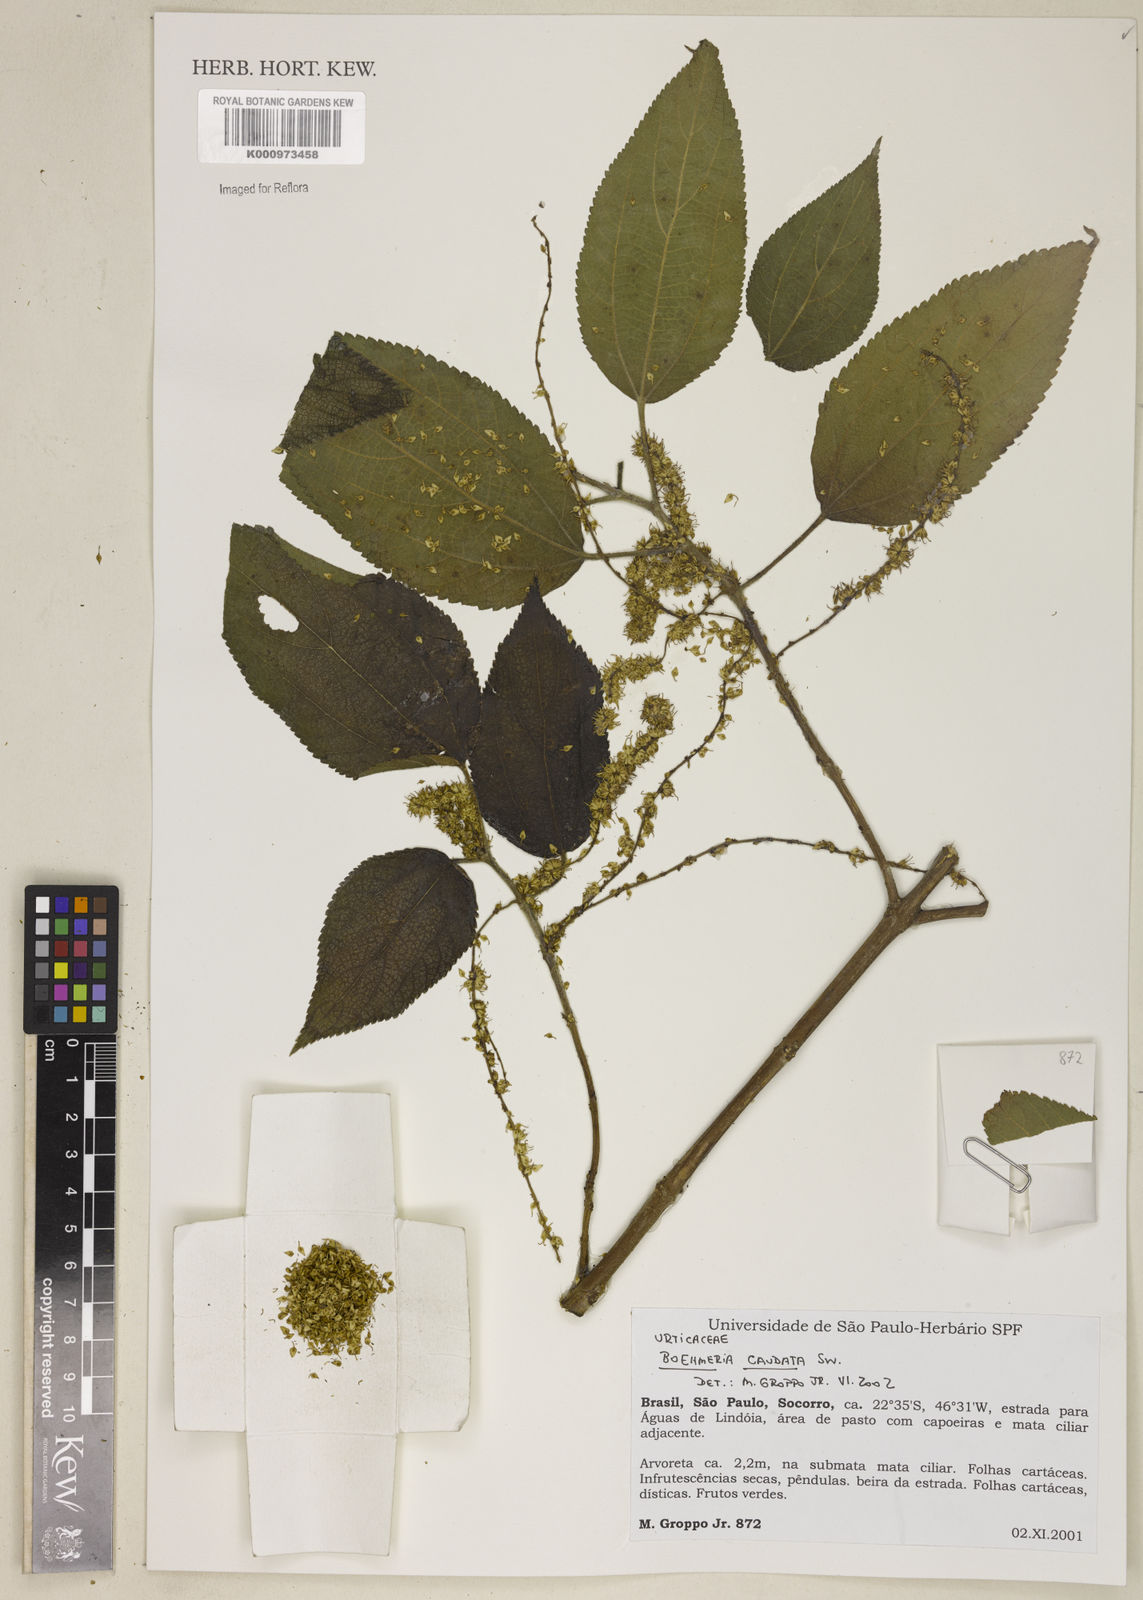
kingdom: Plantae
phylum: Tracheophyta
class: Magnoliopsida
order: Rosales
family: Urticaceae
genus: Boehmeria
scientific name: Boehmeria caudata
